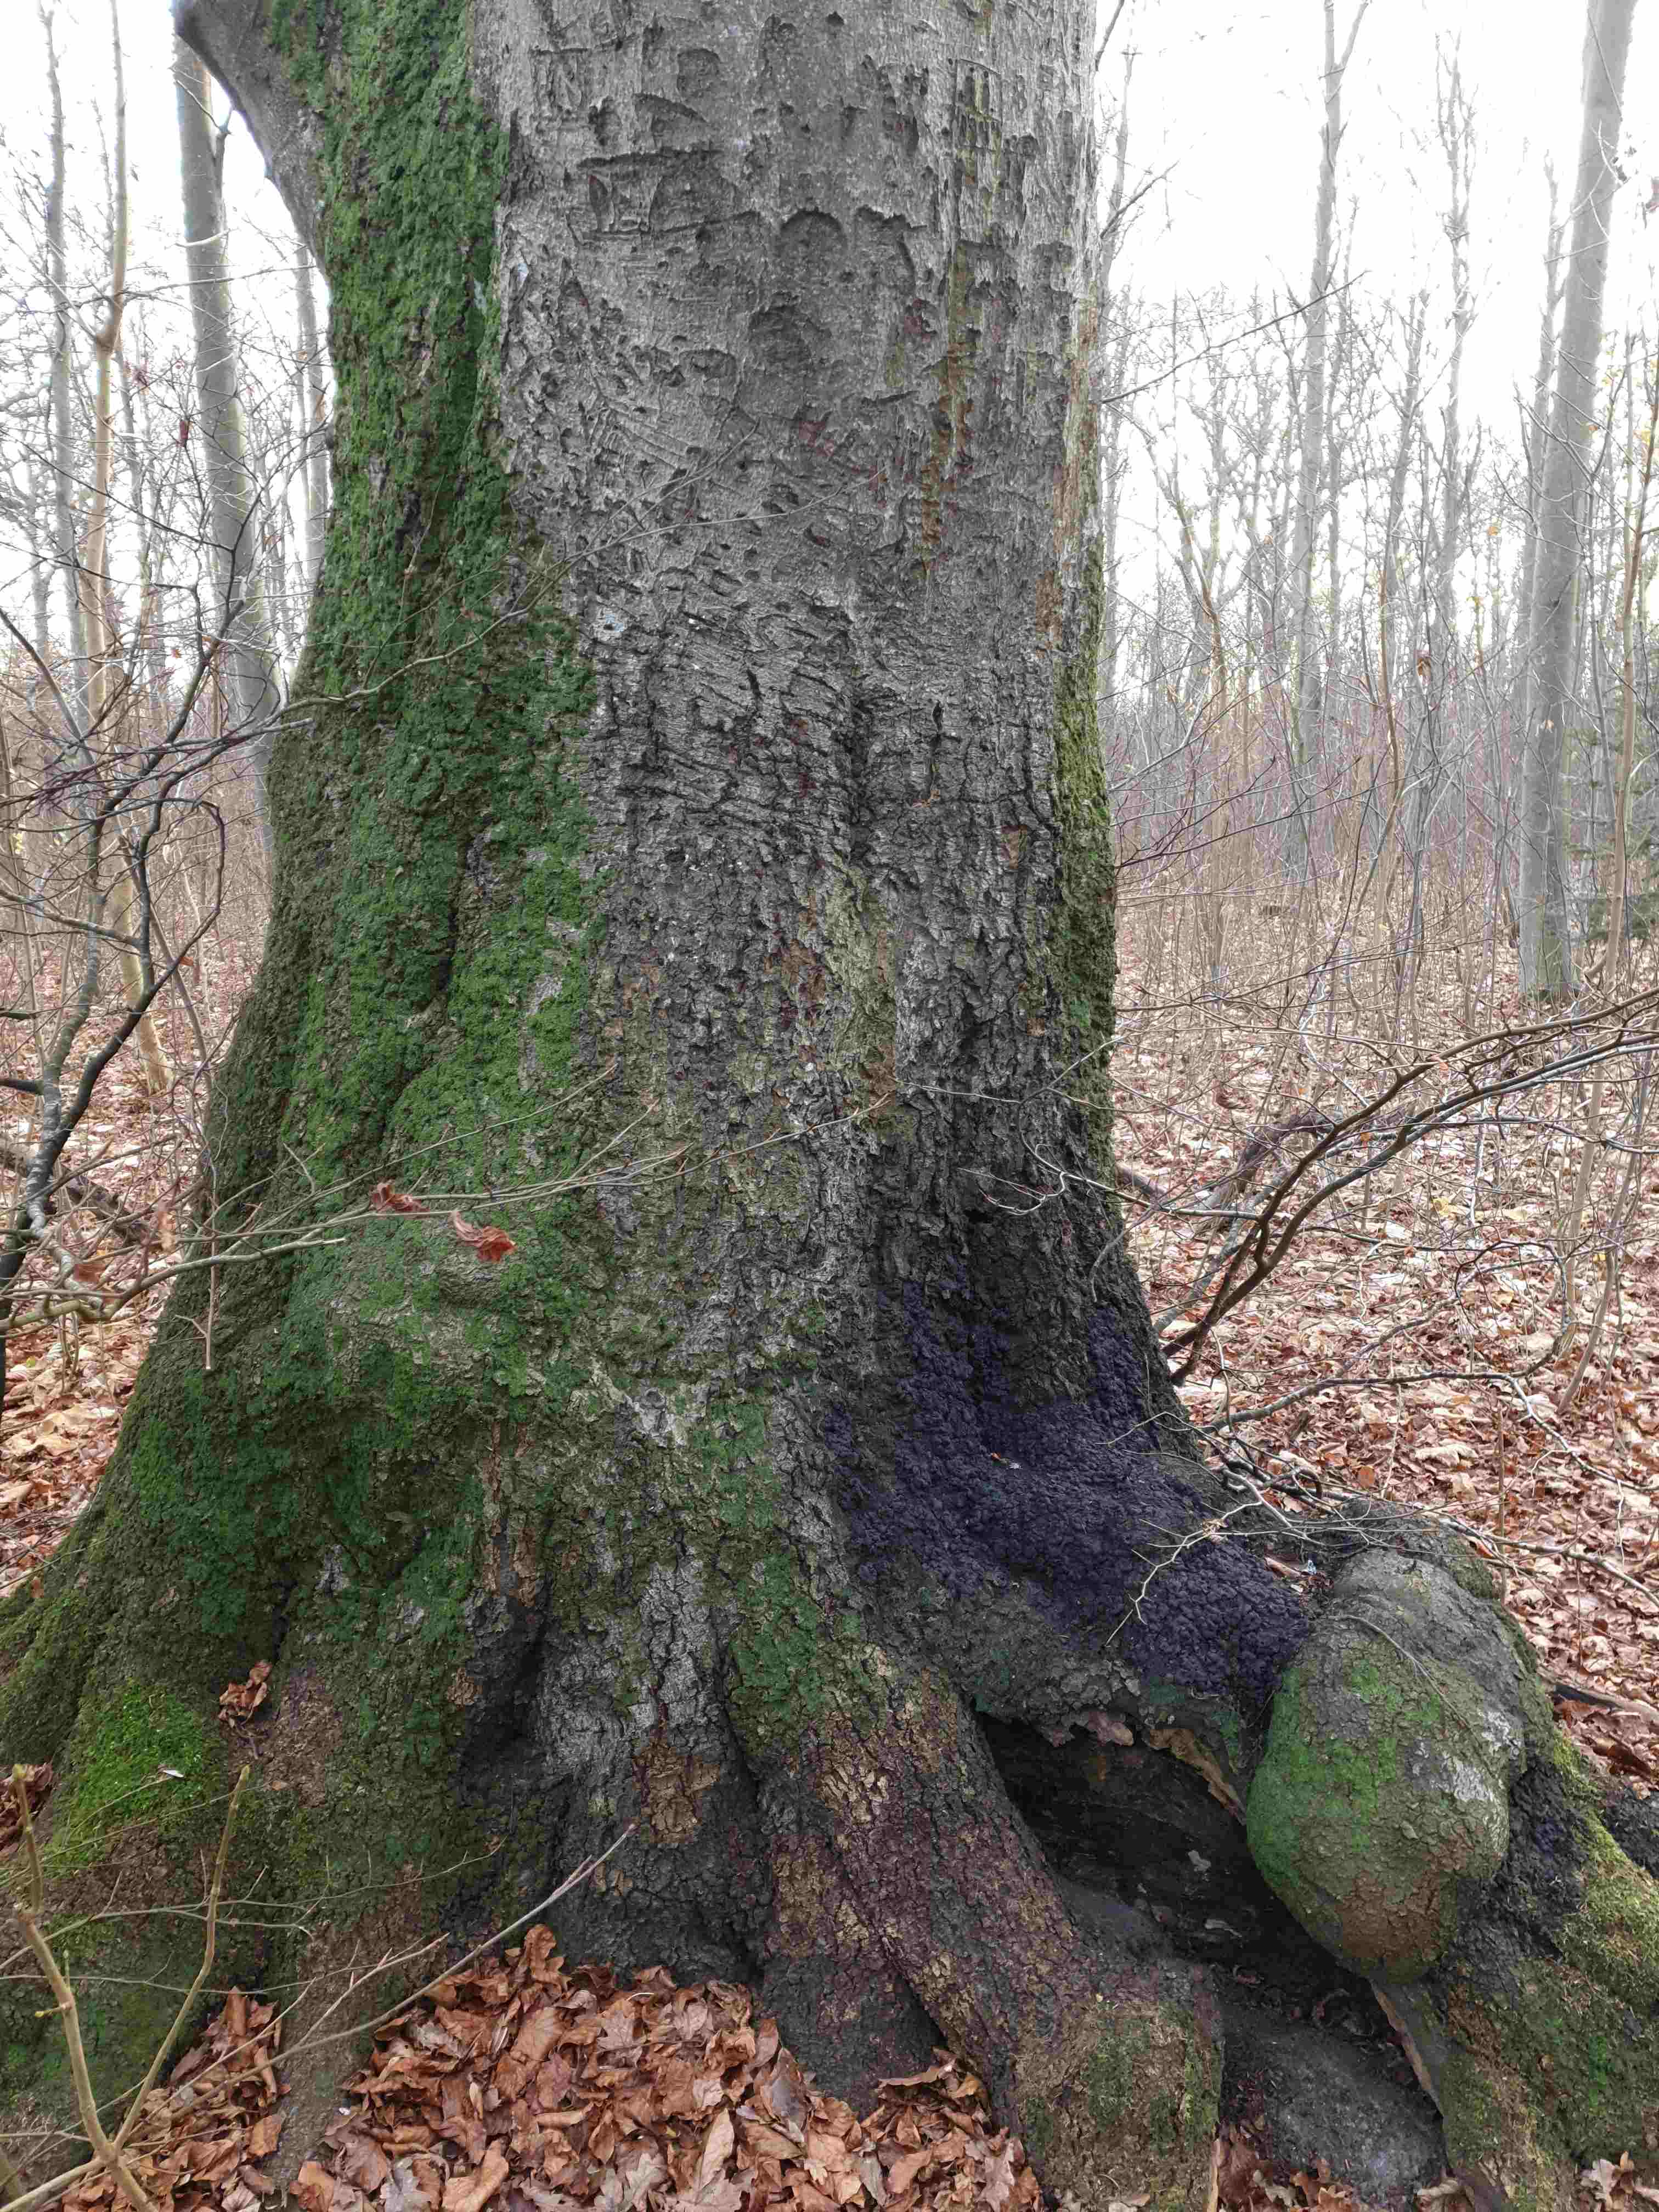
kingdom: Fungi
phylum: Ascomycota
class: Sordariomycetes
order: Xylariales
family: Xylariaceae
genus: Kretzschmaria
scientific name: Kretzschmaria deusta
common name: stor kulsvamp
